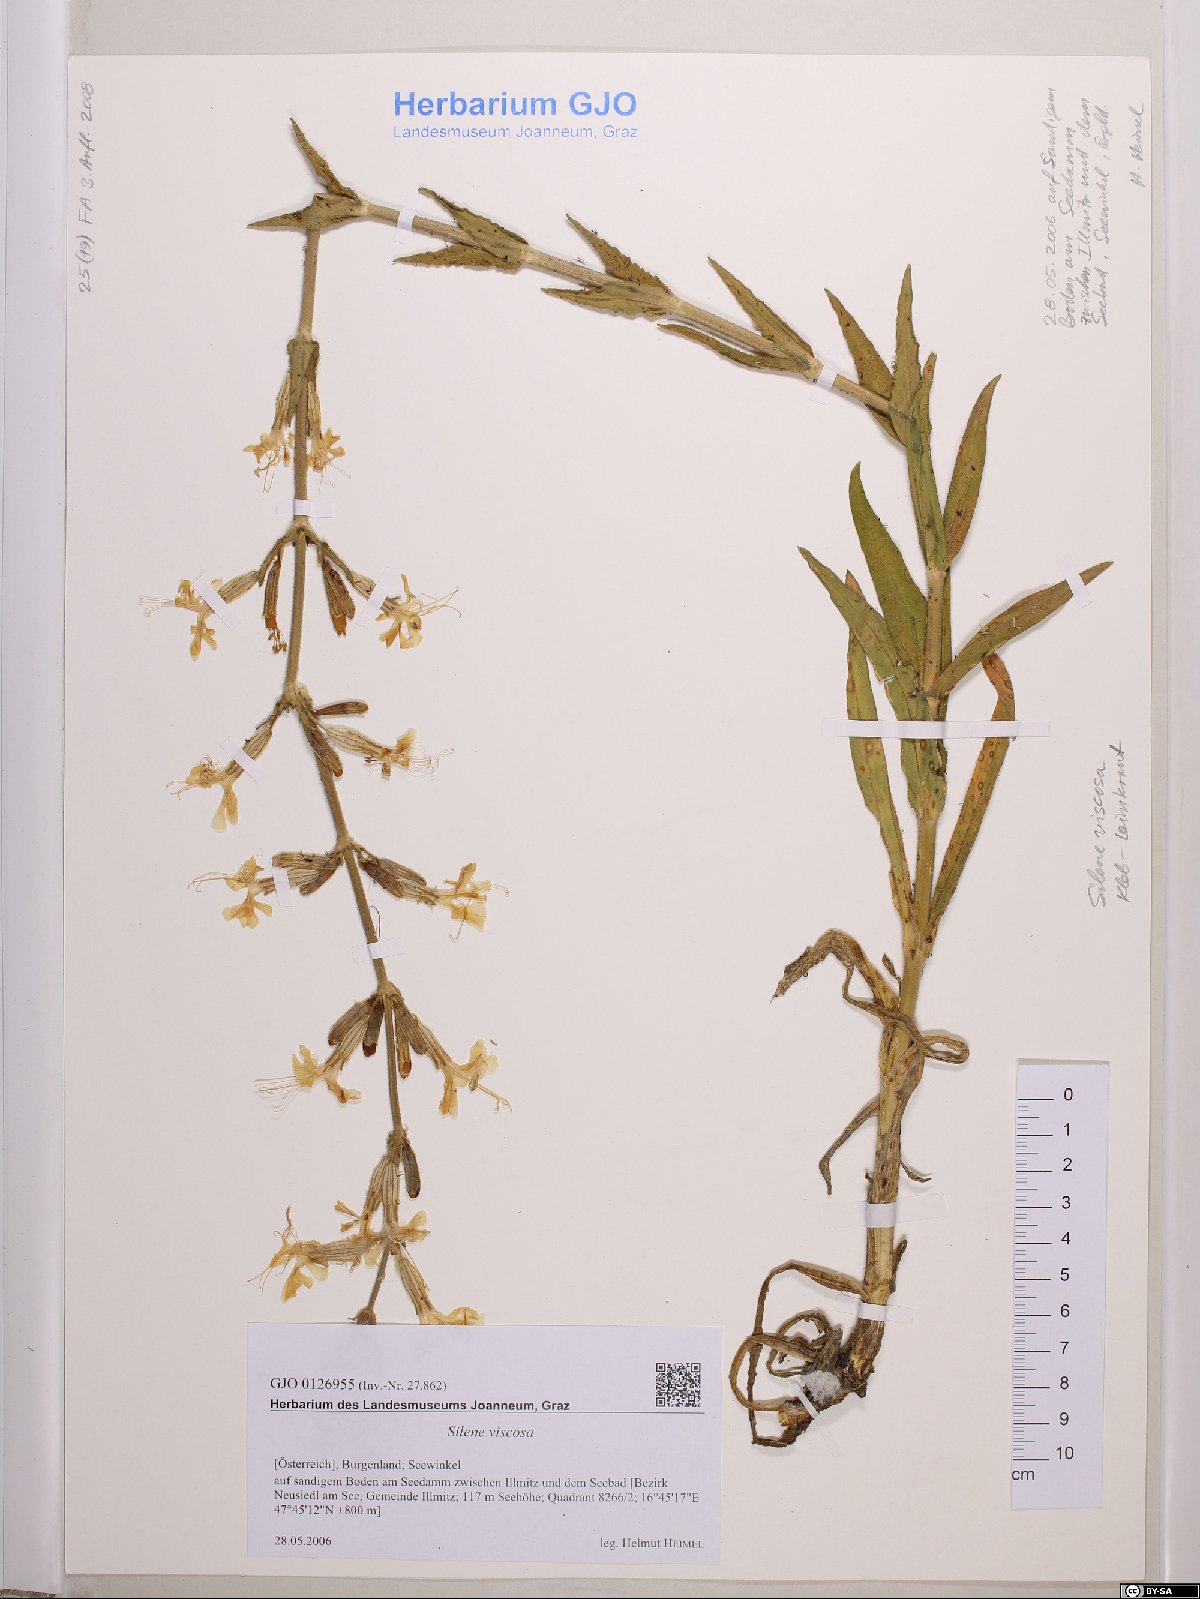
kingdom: Plantae
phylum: Tracheophyta
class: Magnoliopsida
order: Caryophyllales
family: Caryophyllaceae
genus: Silene
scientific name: Silene viscosa
